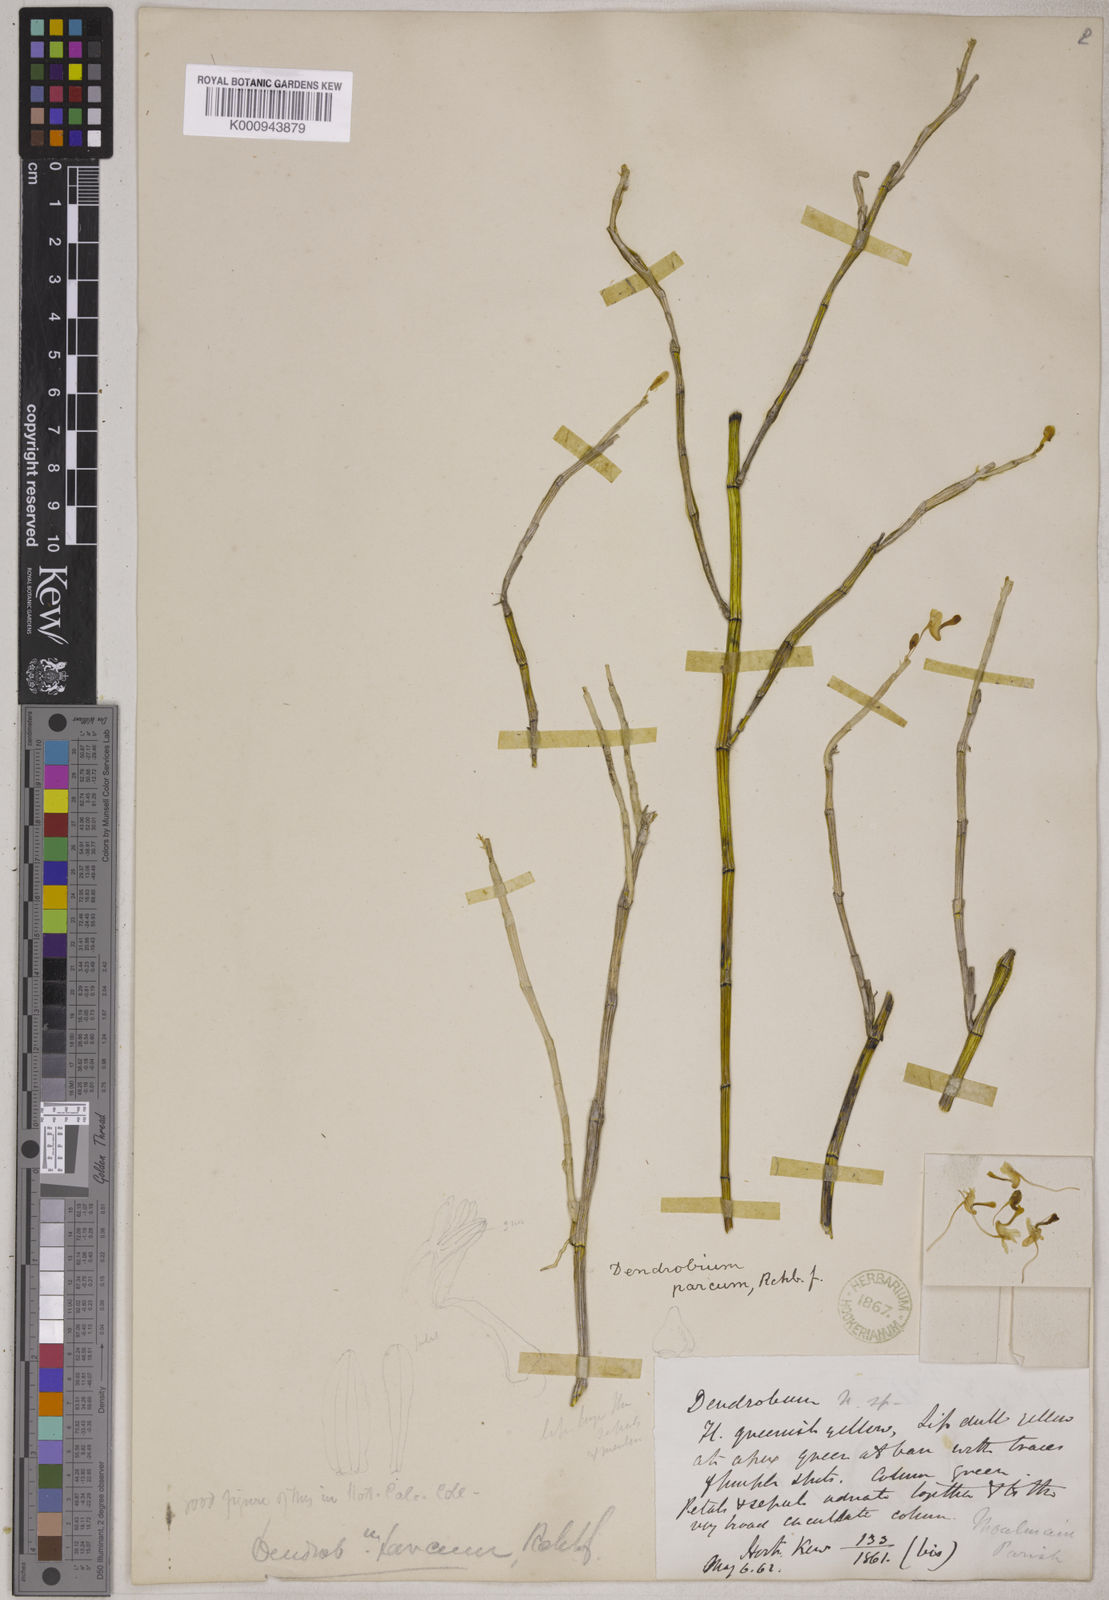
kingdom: Plantae
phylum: Tracheophyta
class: Liliopsida
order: Asparagales
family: Orchidaceae
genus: Dendrobium
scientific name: Dendrobium parcum
